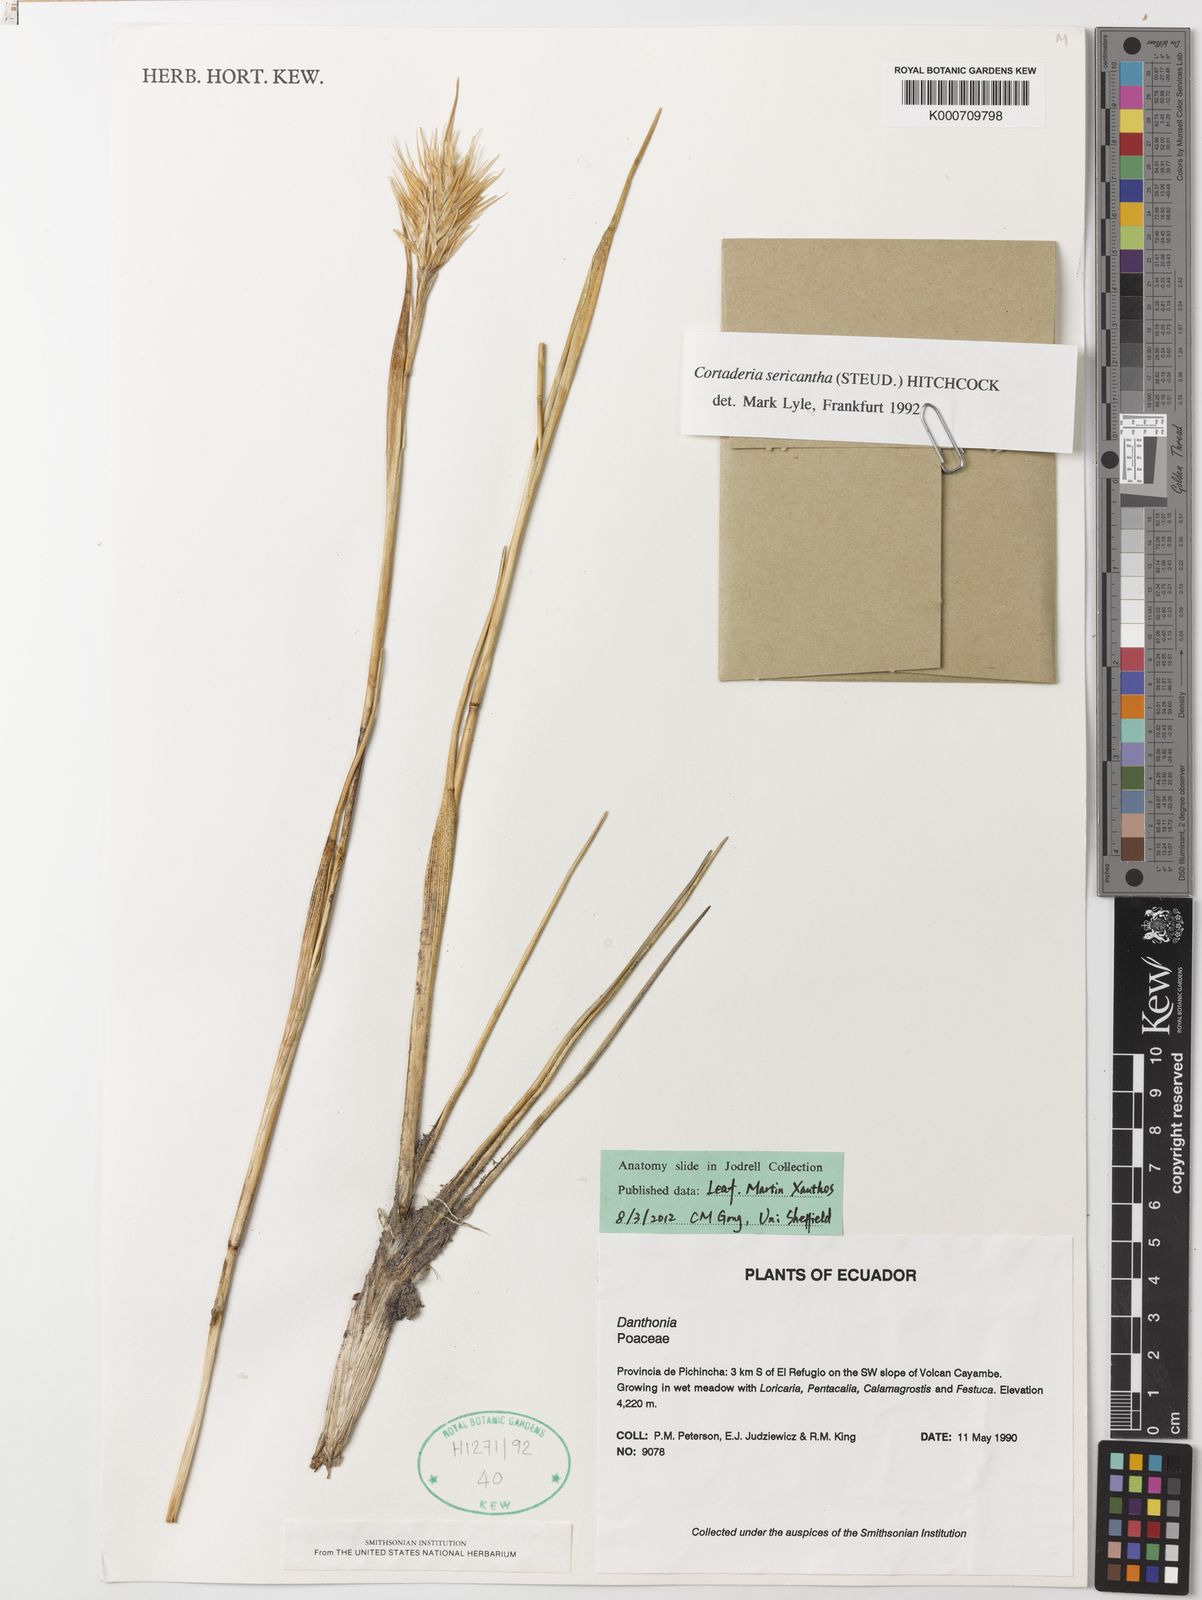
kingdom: Plantae
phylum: Tracheophyta
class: Liliopsida
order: Poales
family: Poaceae
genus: Cortaderia
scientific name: Cortaderia sericantha
